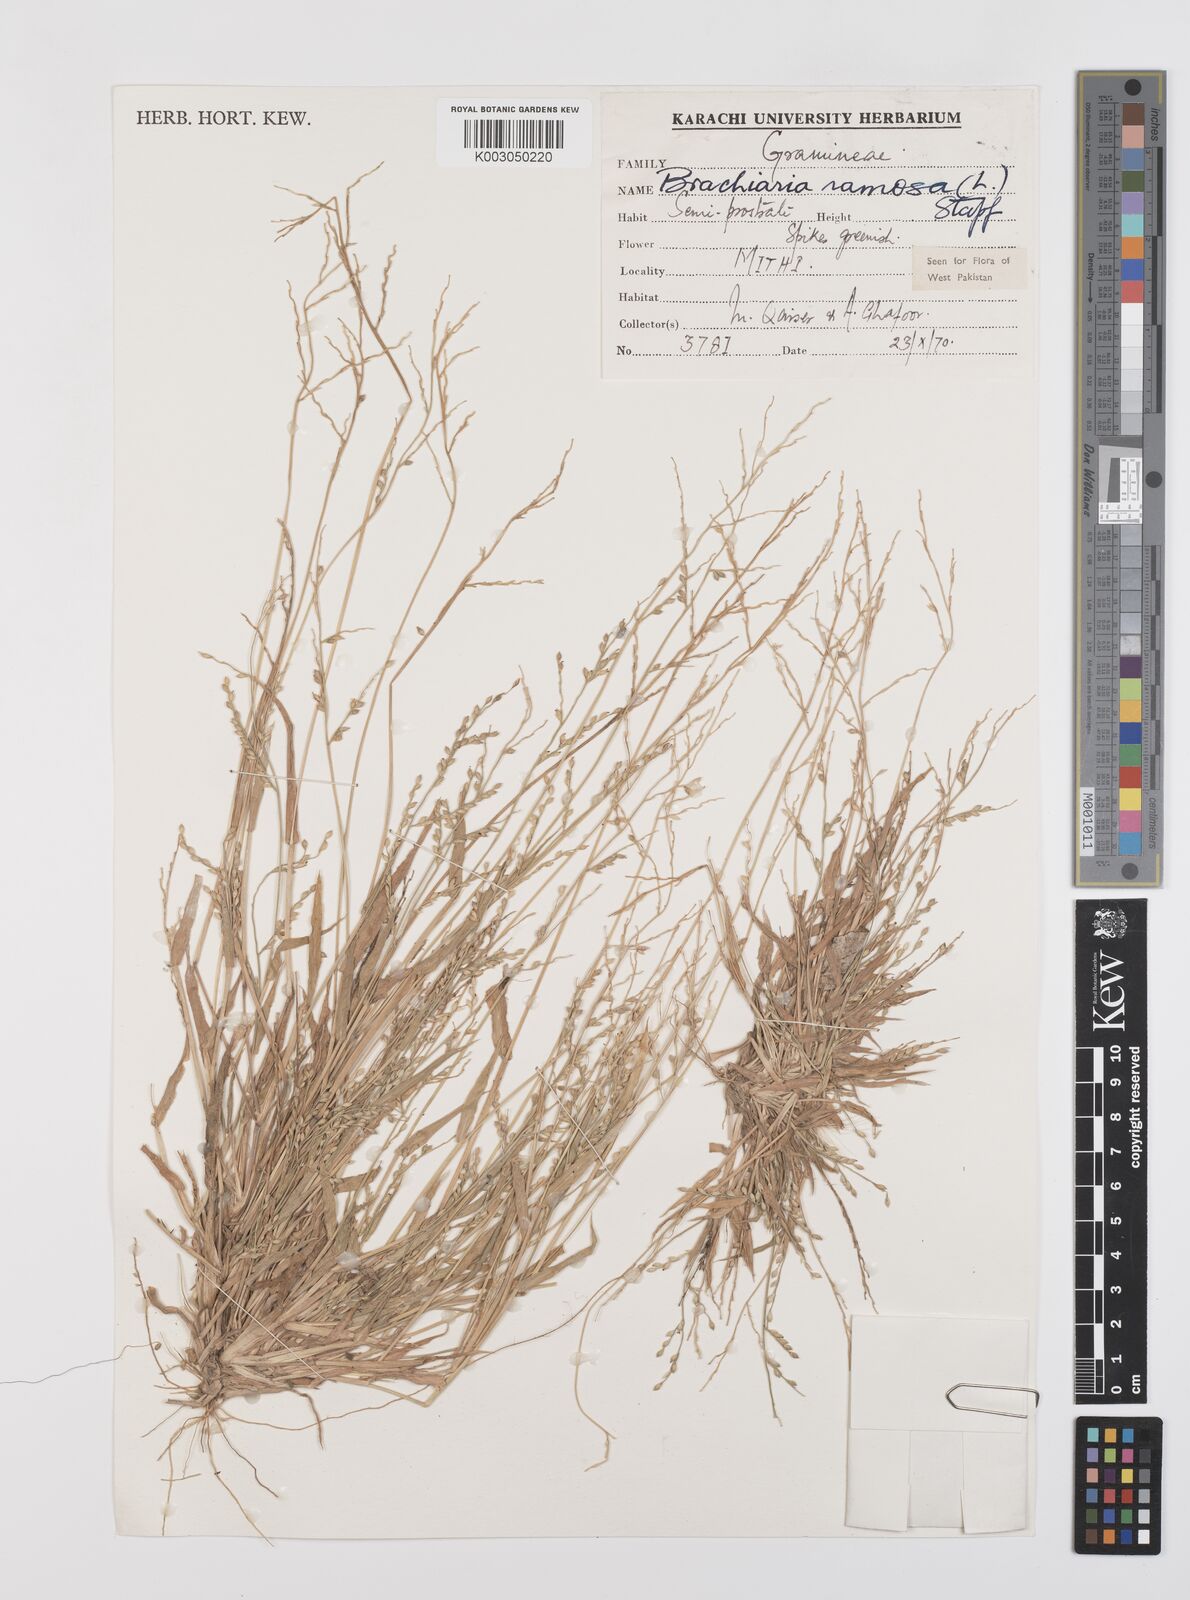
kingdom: Plantae
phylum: Tracheophyta
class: Liliopsida
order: Poales
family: Poaceae
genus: Urochloa
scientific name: Urochloa ramosa
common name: Browntop millet
